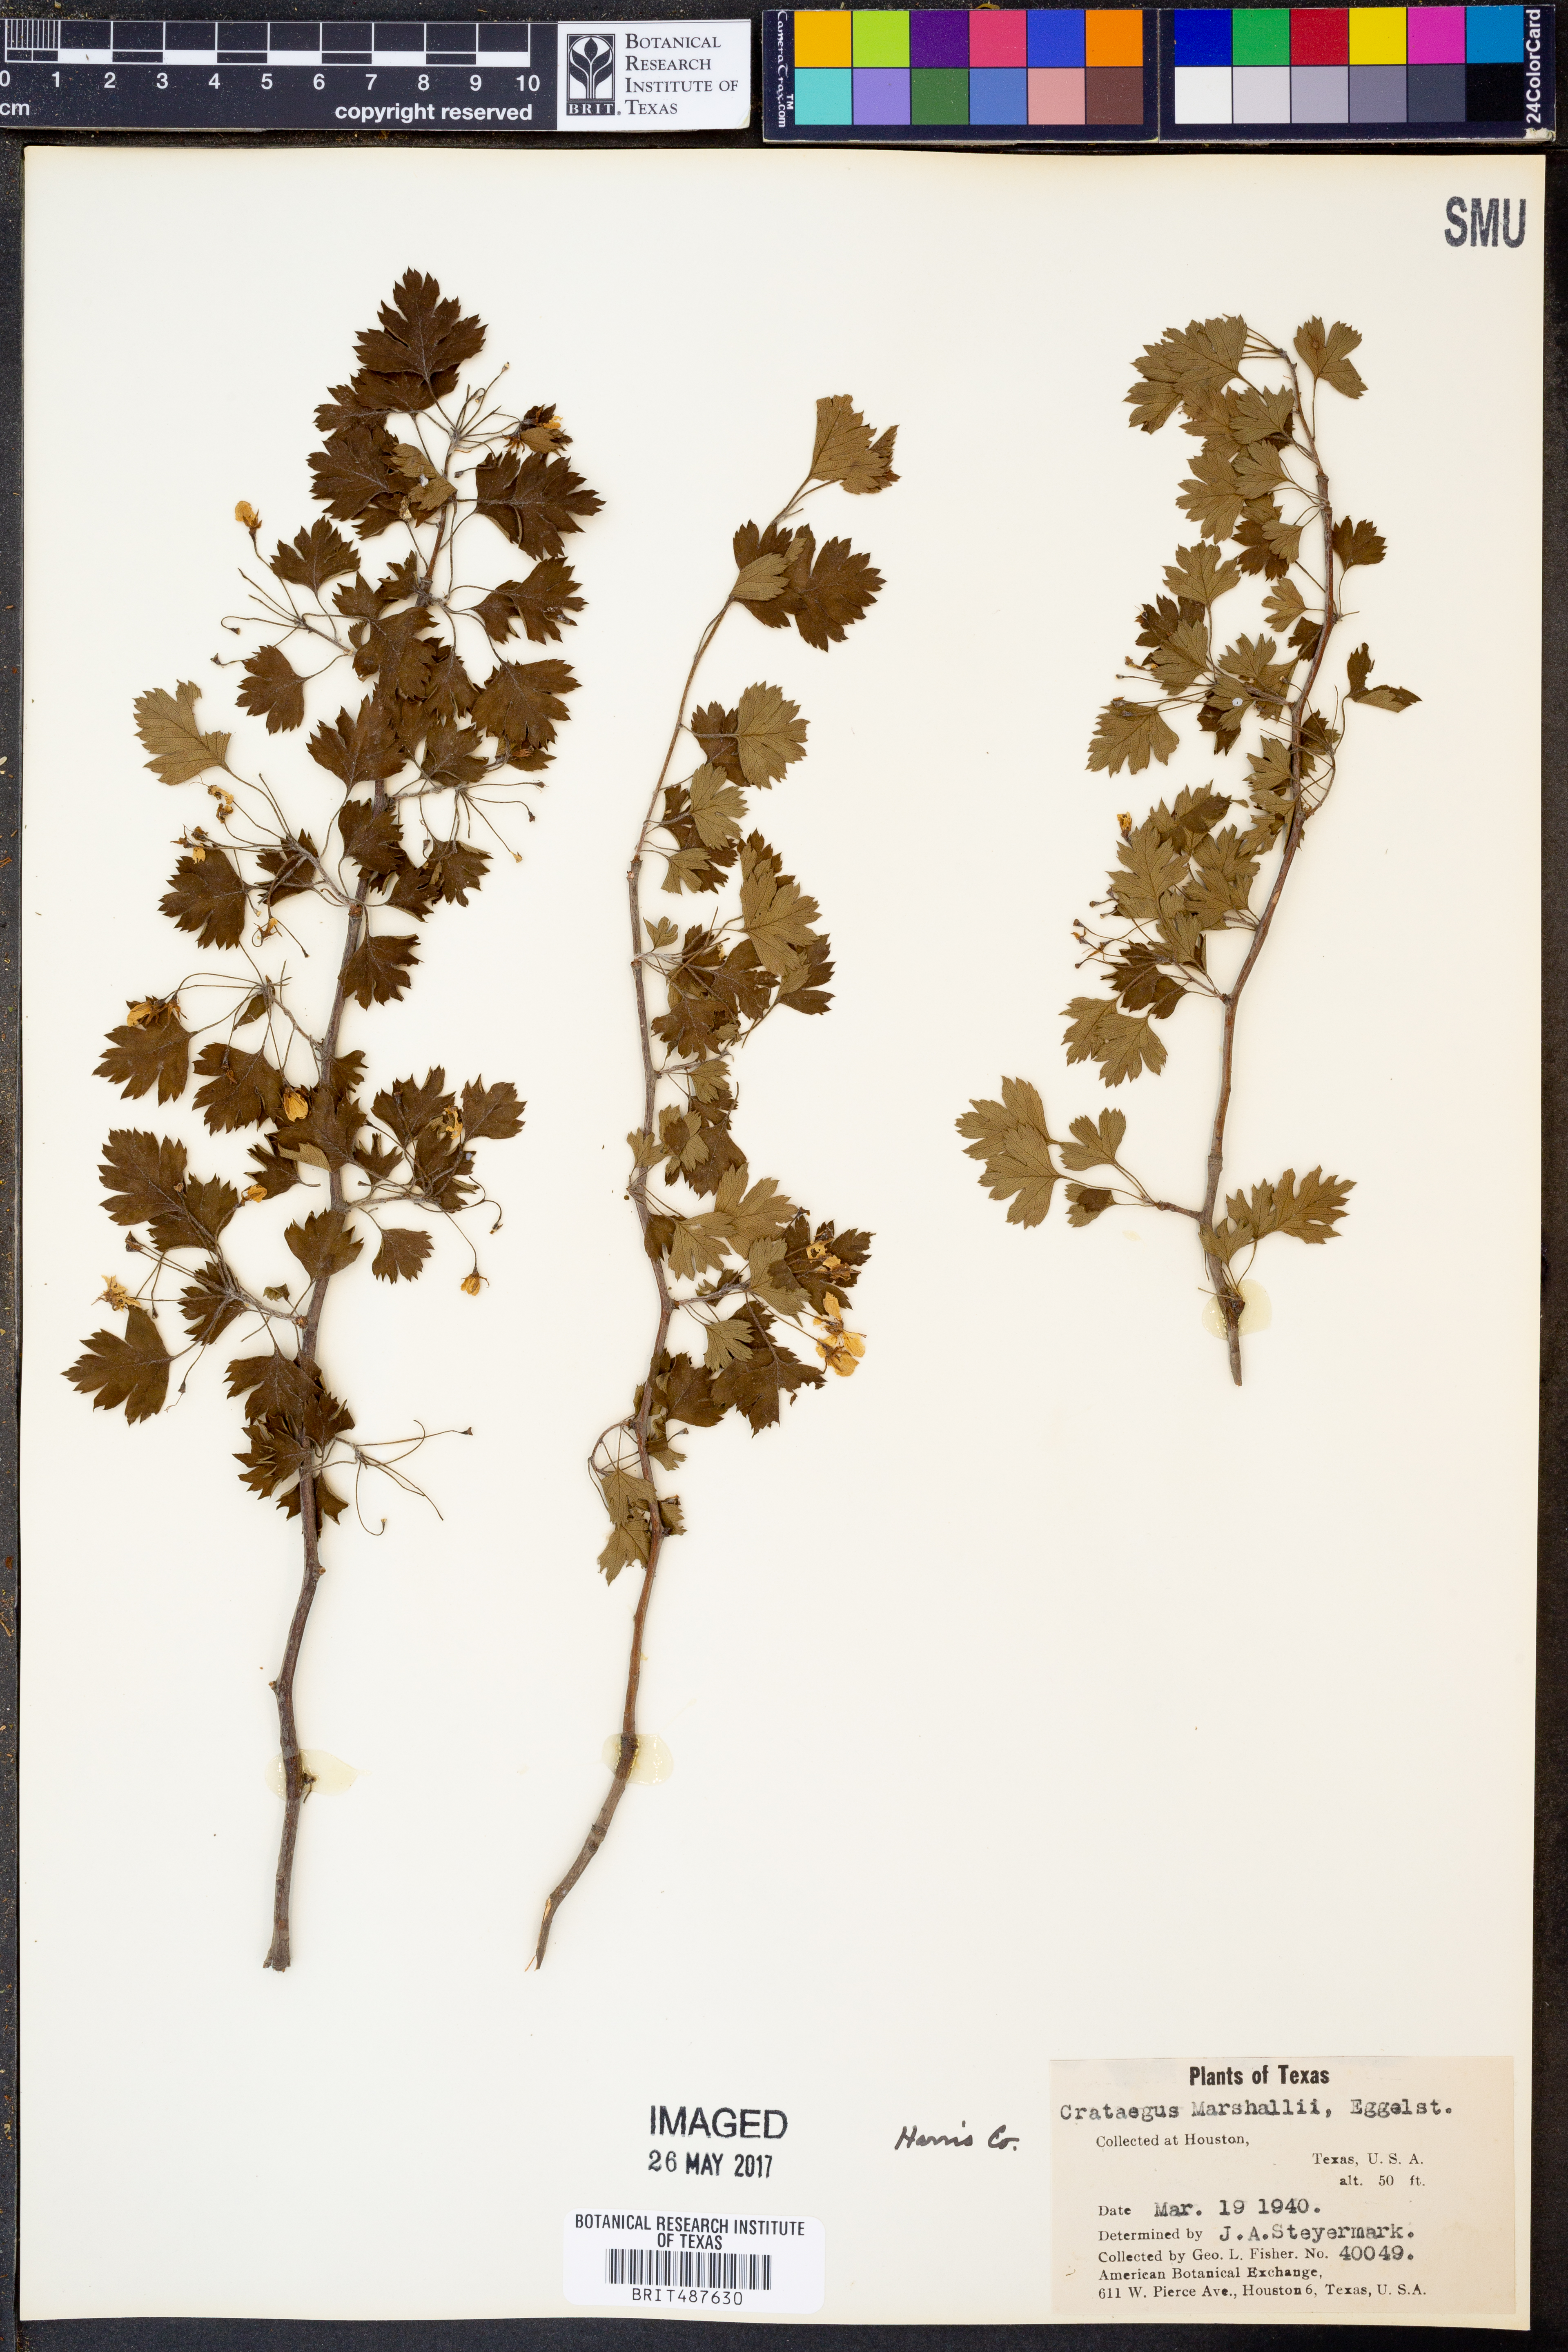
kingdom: Plantae
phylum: Tracheophyta
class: Magnoliopsida
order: Rosales
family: Rosaceae
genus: Crataegus
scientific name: Crataegus marshallii
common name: Parsley-hawthorn
